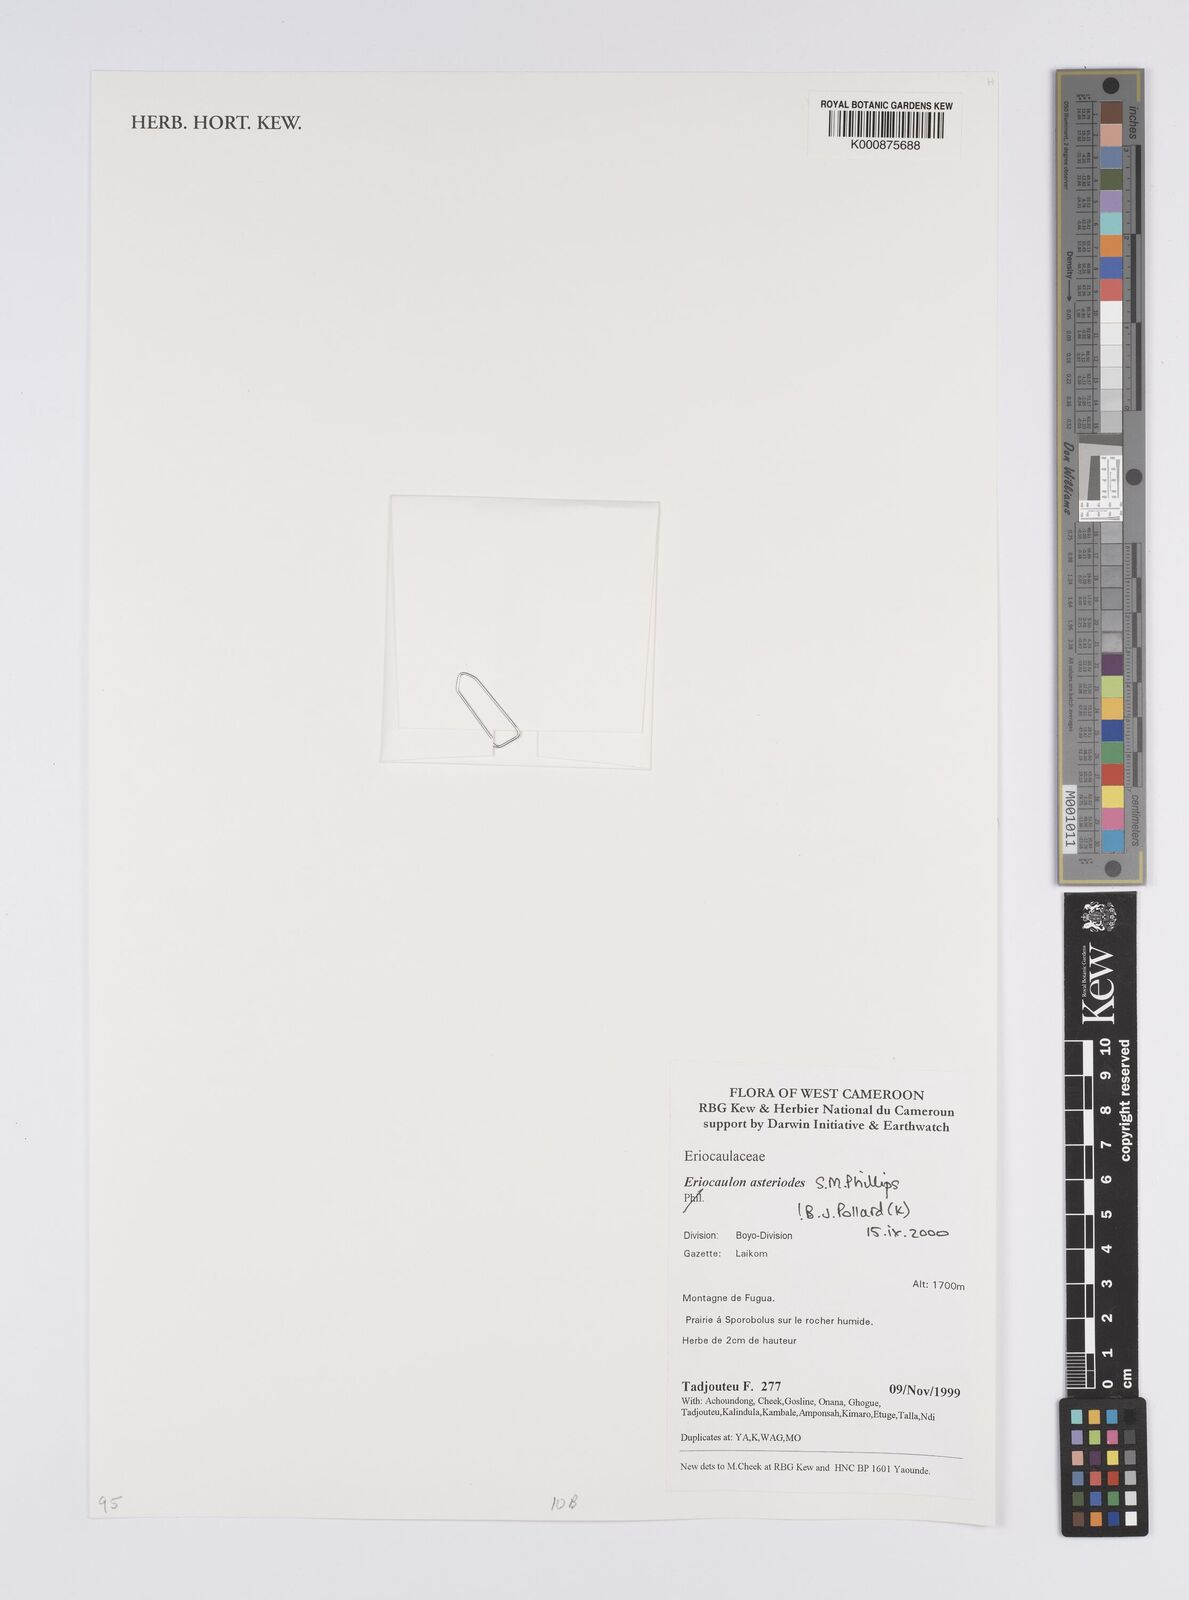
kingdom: Plantae
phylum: Tracheophyta
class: Liliopsida
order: Poales
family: Eriocaulaceae
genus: Eriocaulon
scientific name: Eriocaulon asteroides
